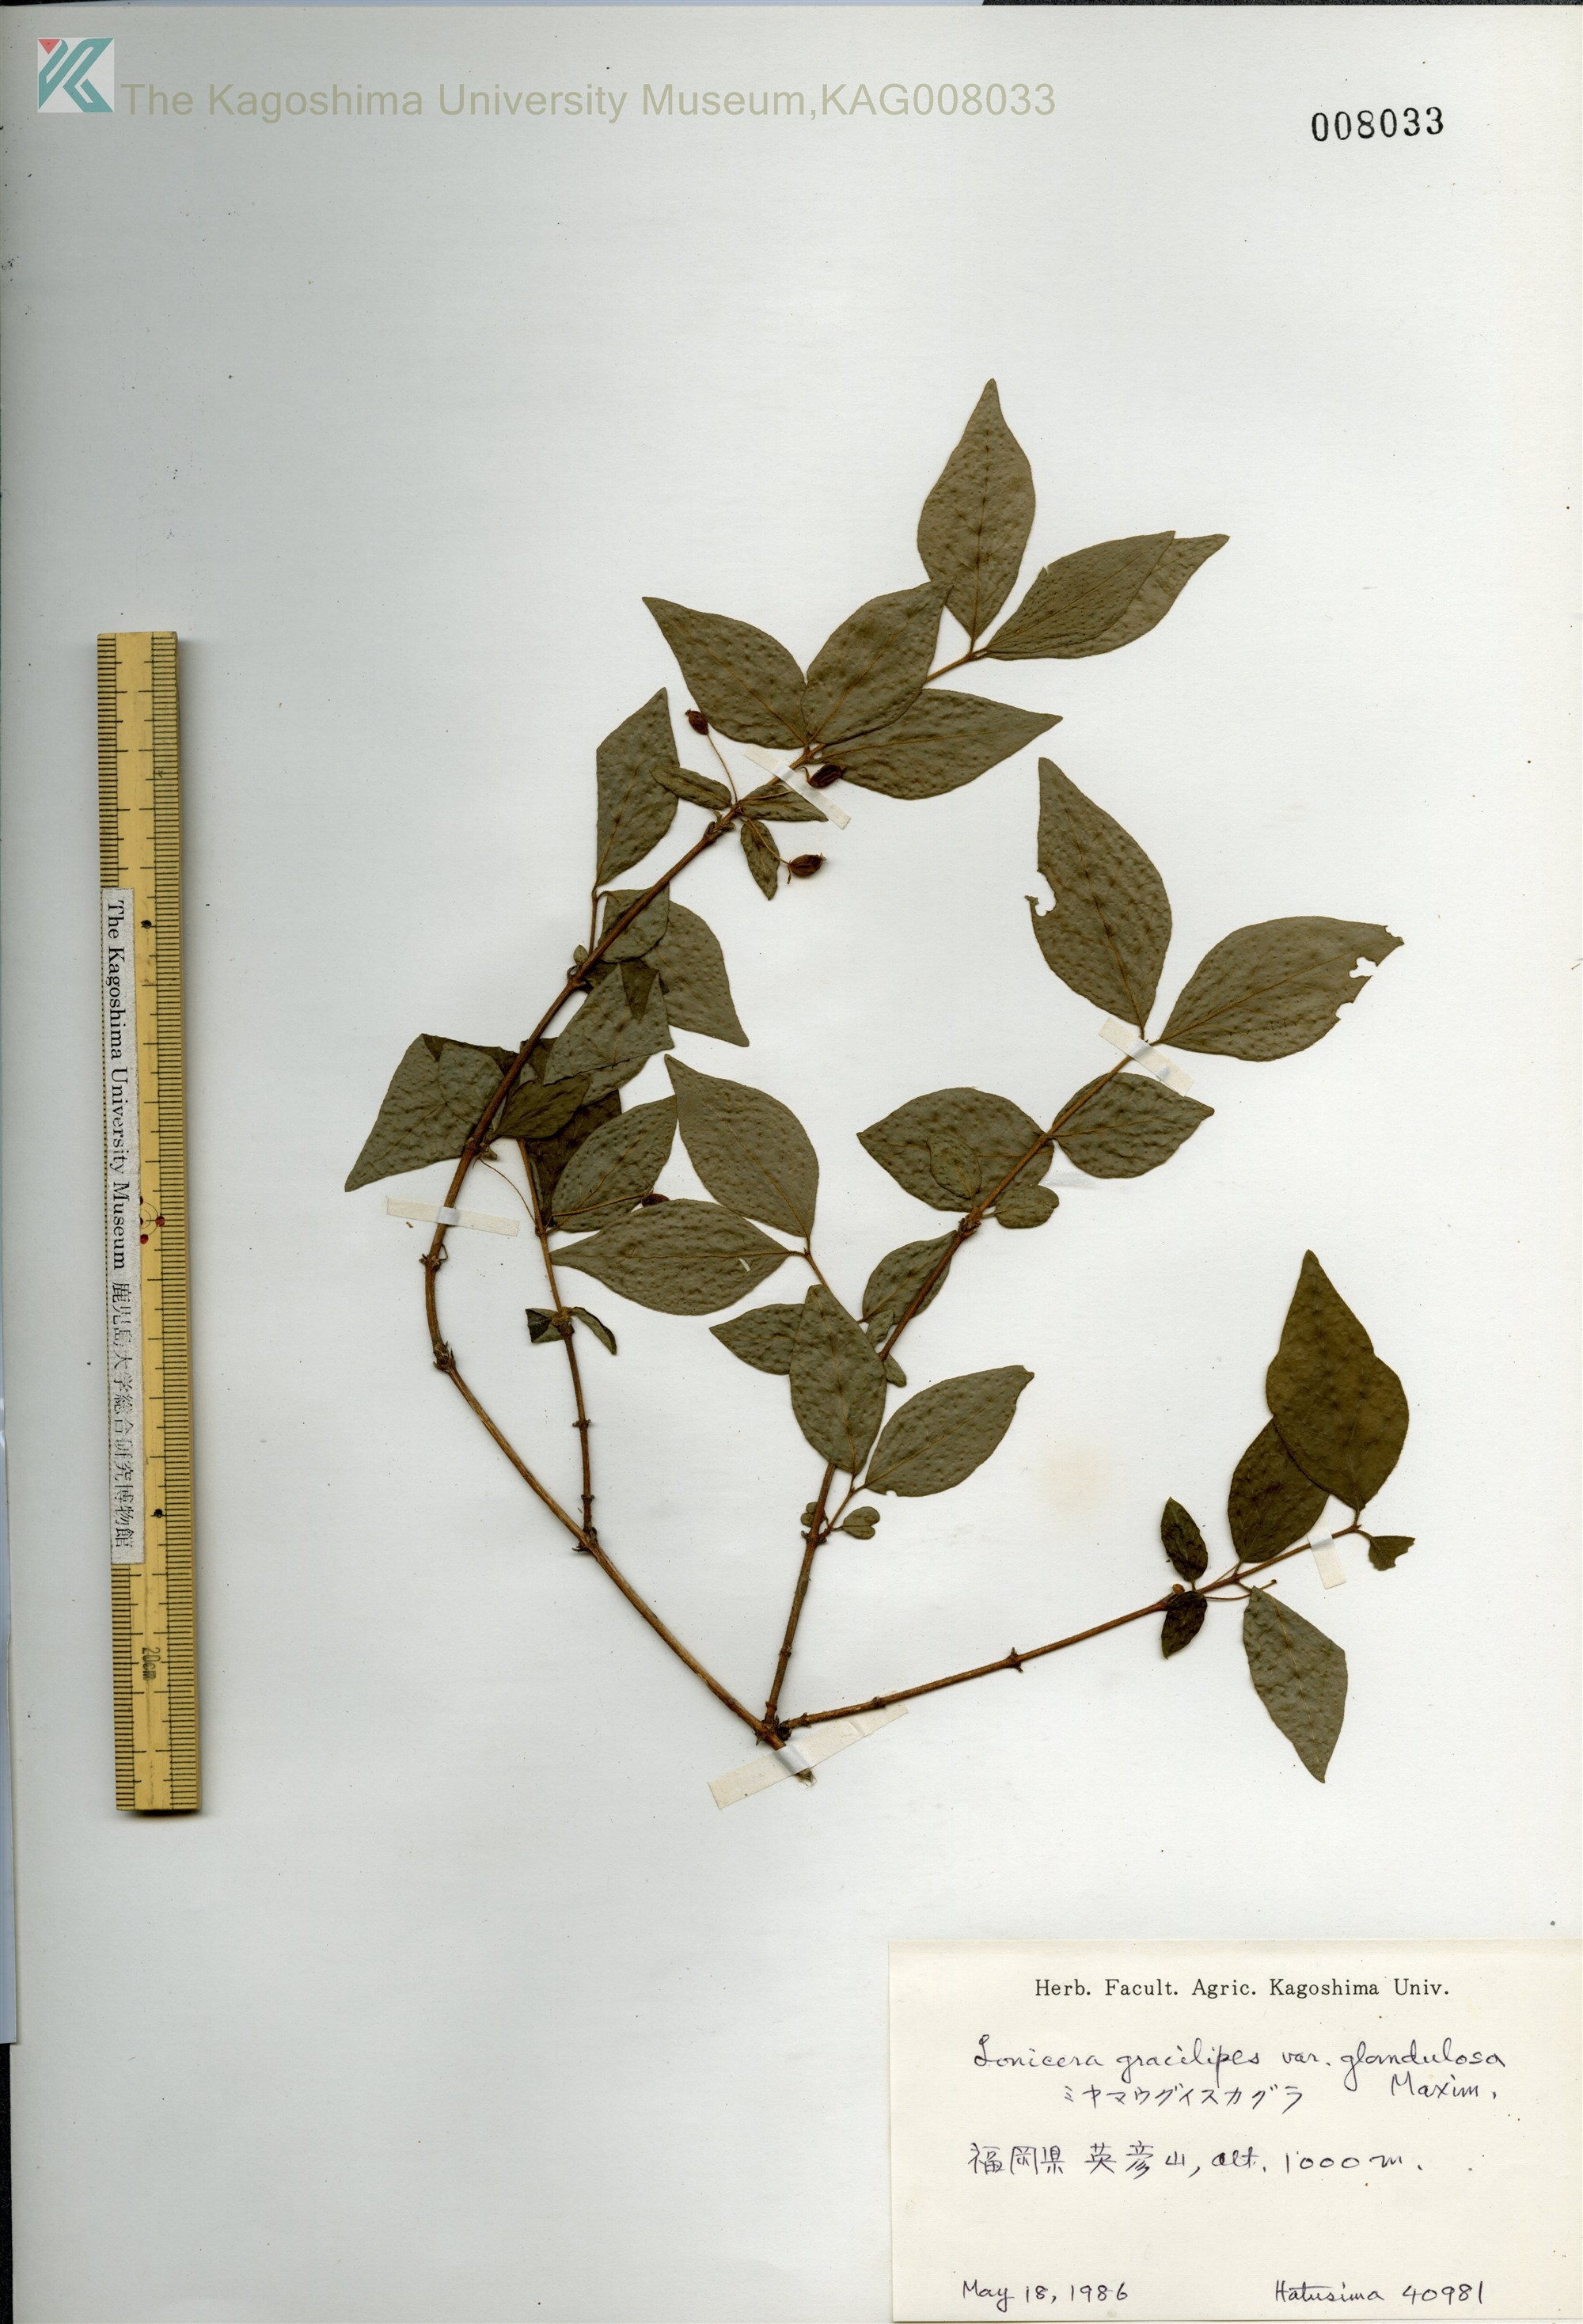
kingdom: Plantae
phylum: Tracheophyta
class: Magnoliopsida
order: Dipsacales
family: Caprifoliaceae
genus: Lonicera
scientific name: Lonicera gracilipes
